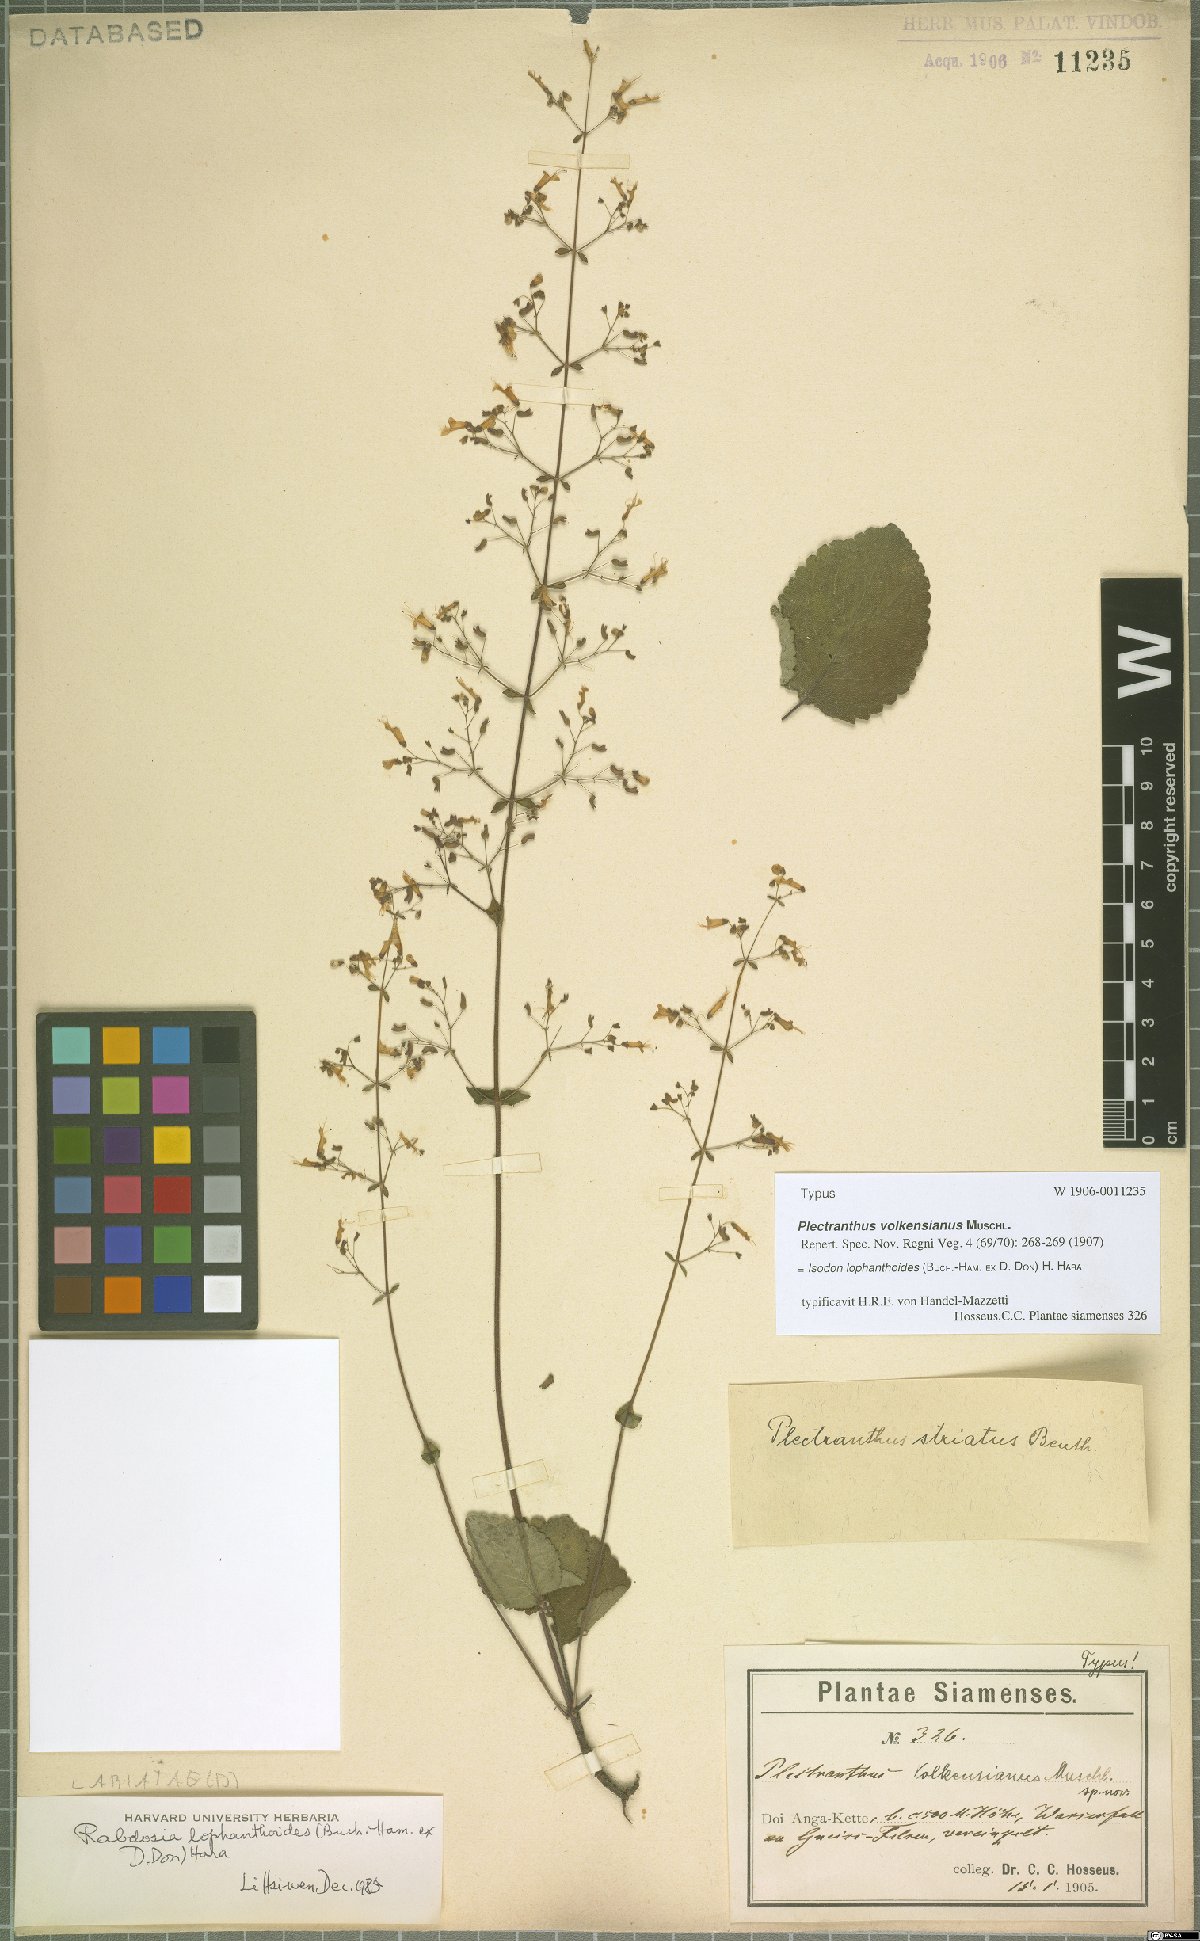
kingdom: Plantae
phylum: Tracheophyta
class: Magnoliopsida
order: Lamiales
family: Lamiaceae
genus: Isodon
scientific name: Isodon lophanthoides
